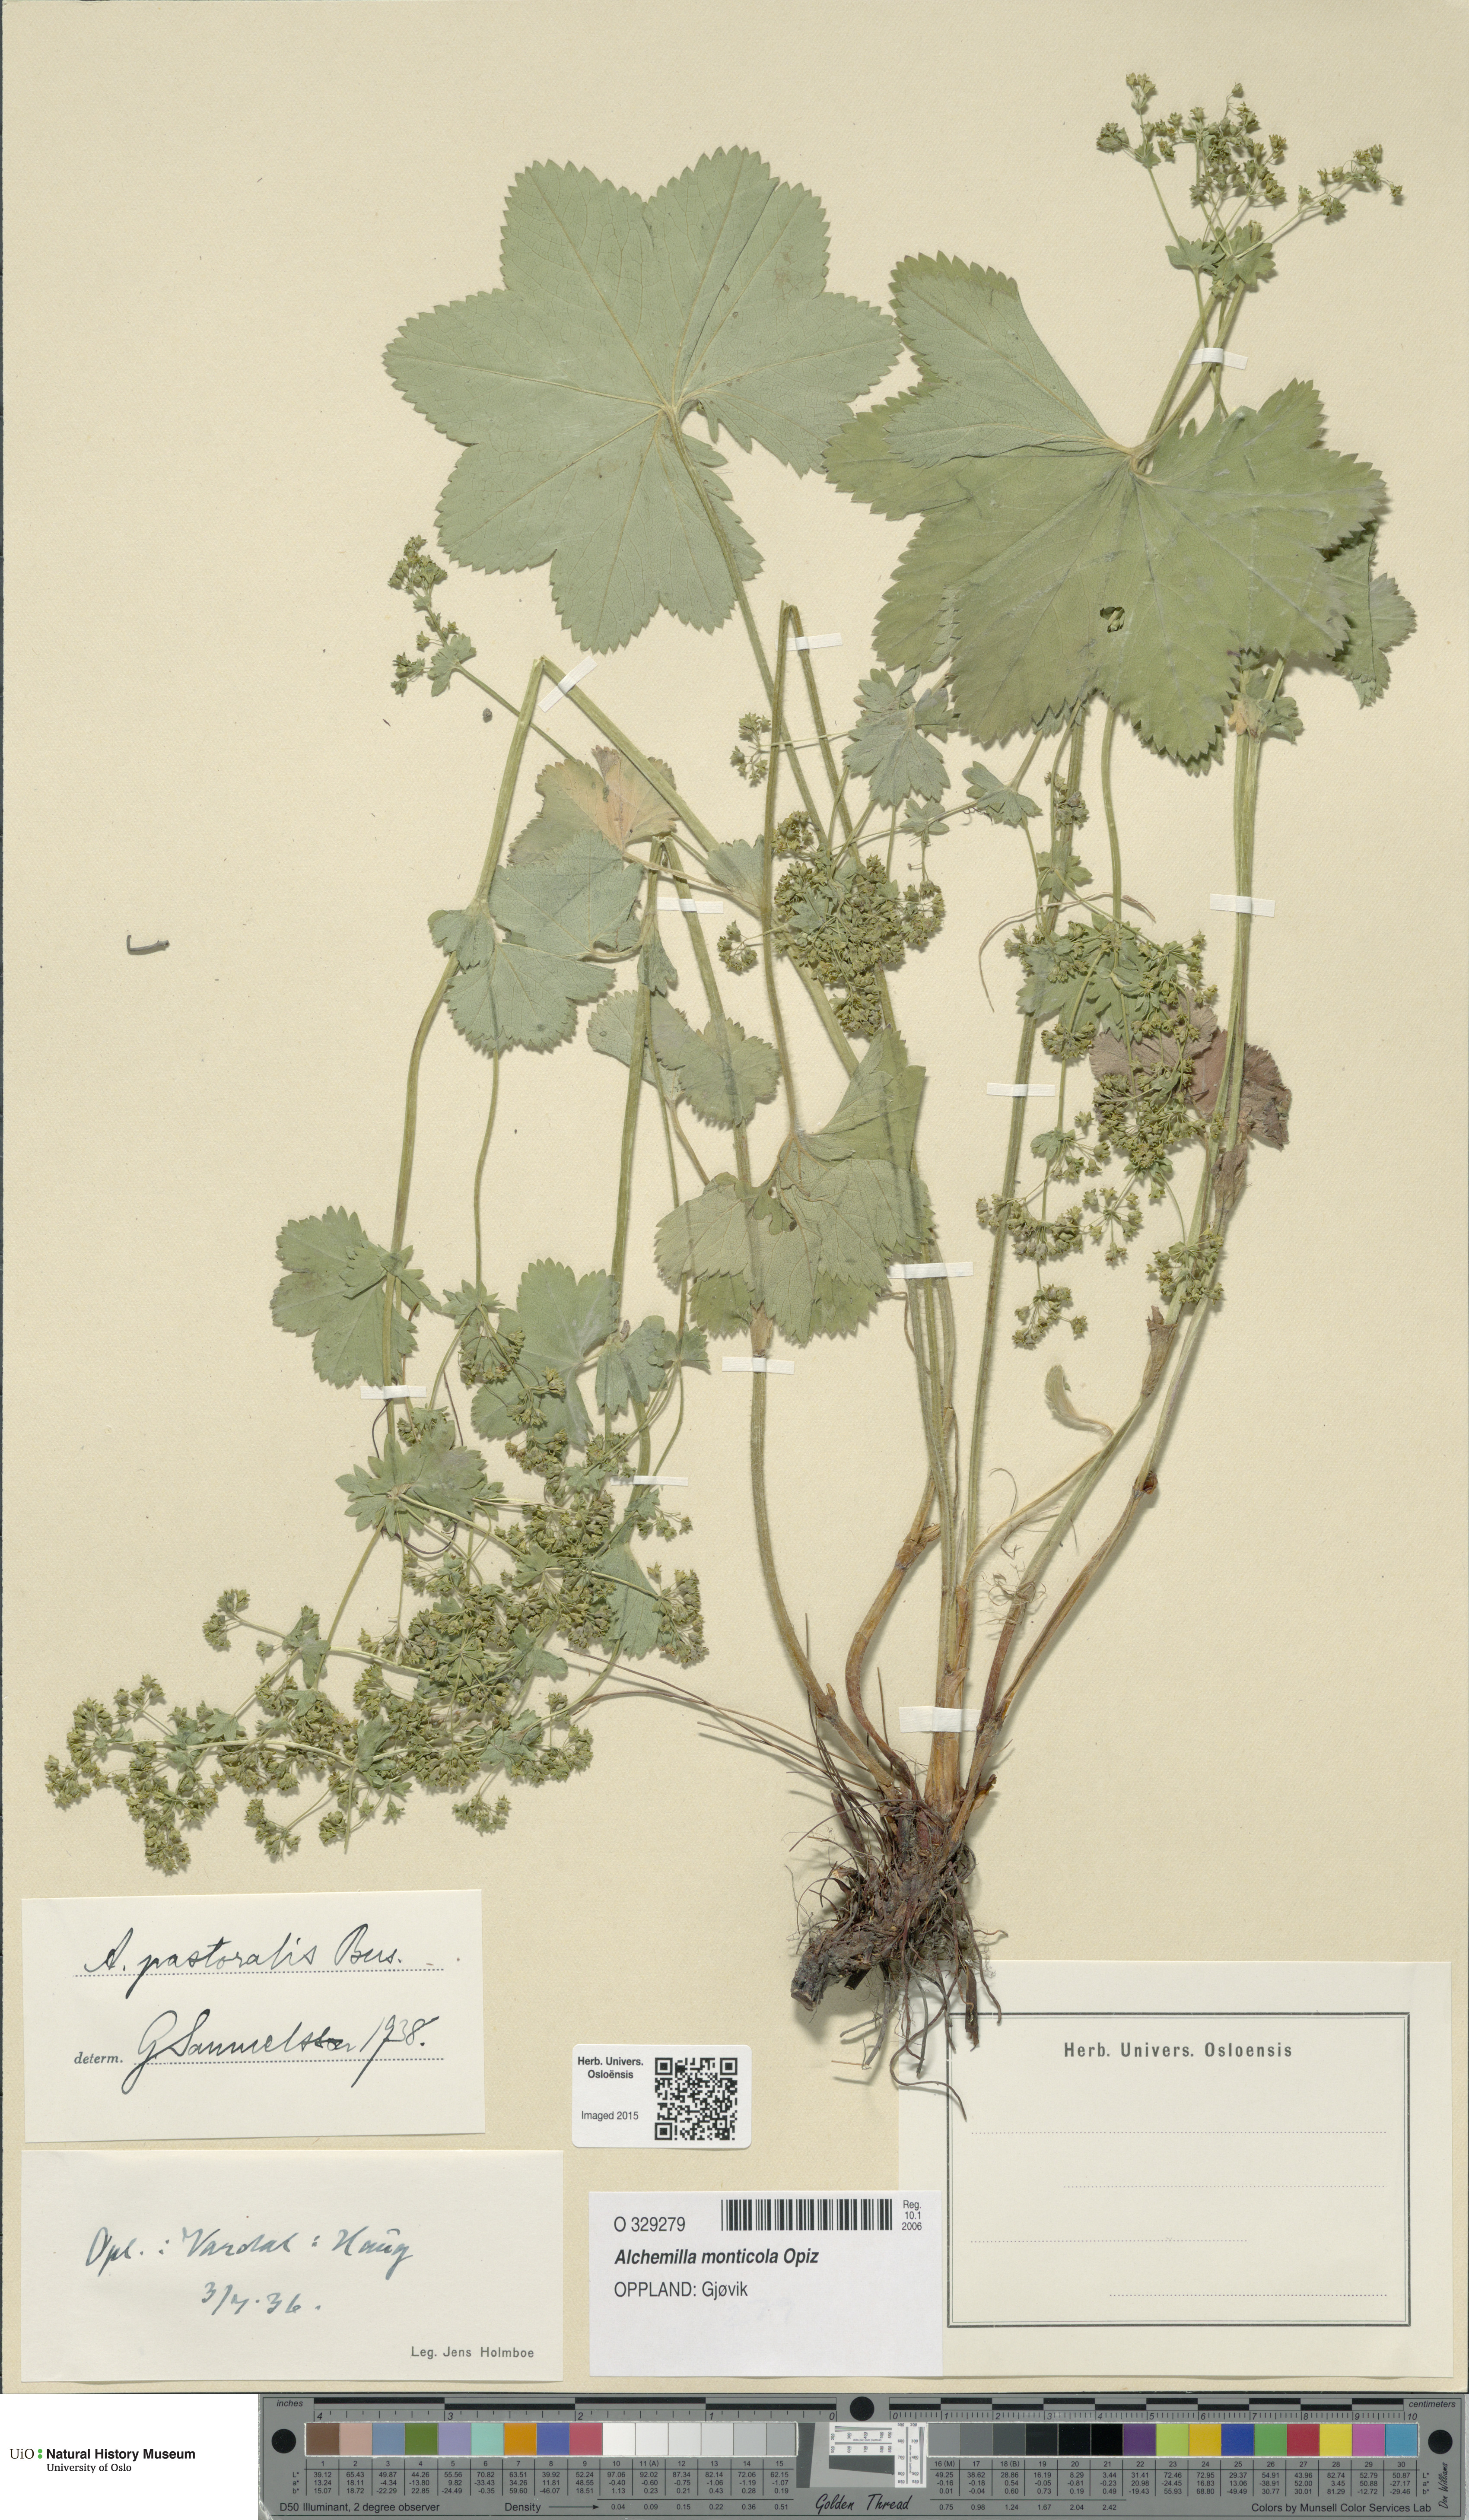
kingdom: Plantae
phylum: Tracheophyta
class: Magnoliopsida
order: Rosales
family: Rosaceae
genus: Alchemilla
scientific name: Alchemilla monticola
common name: Hairy lady's mantle
